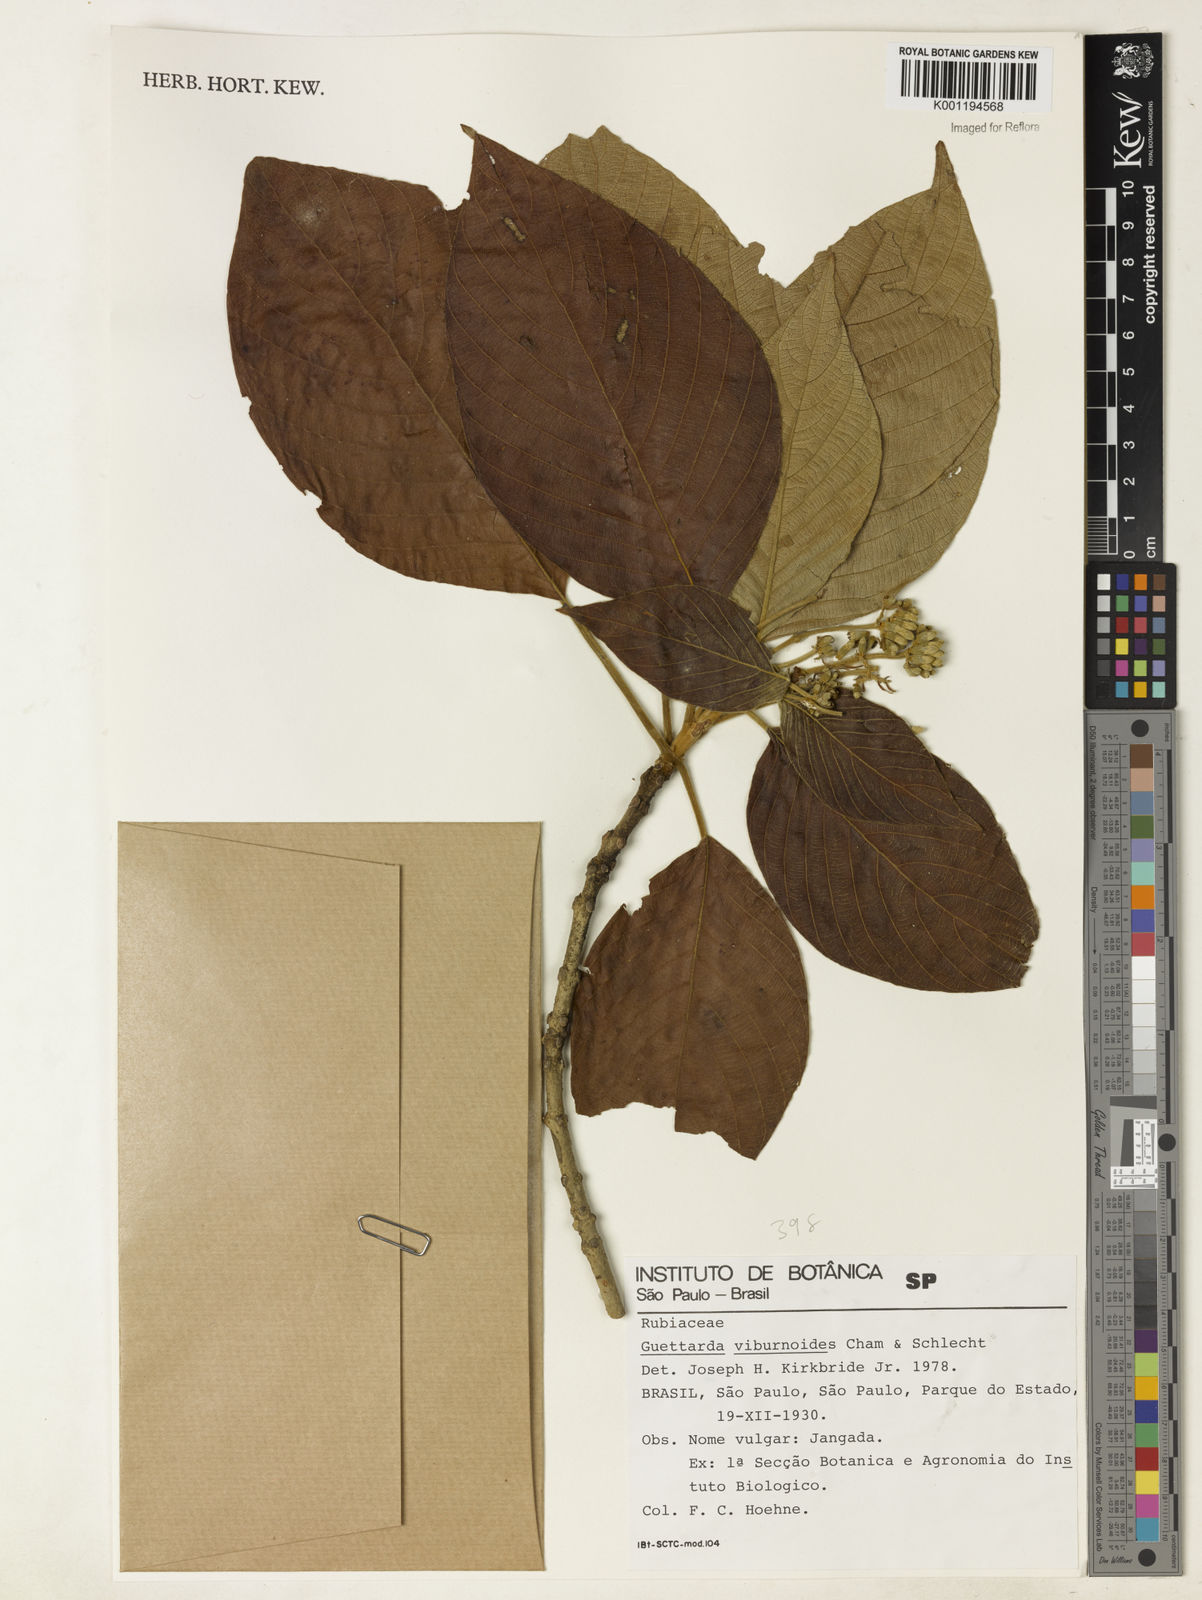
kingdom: Plantae
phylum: Tracheophyta
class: Magnoliopsida
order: Gentianales
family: Rubiaceae
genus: Guettarda
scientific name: Guettarda viburnoides
